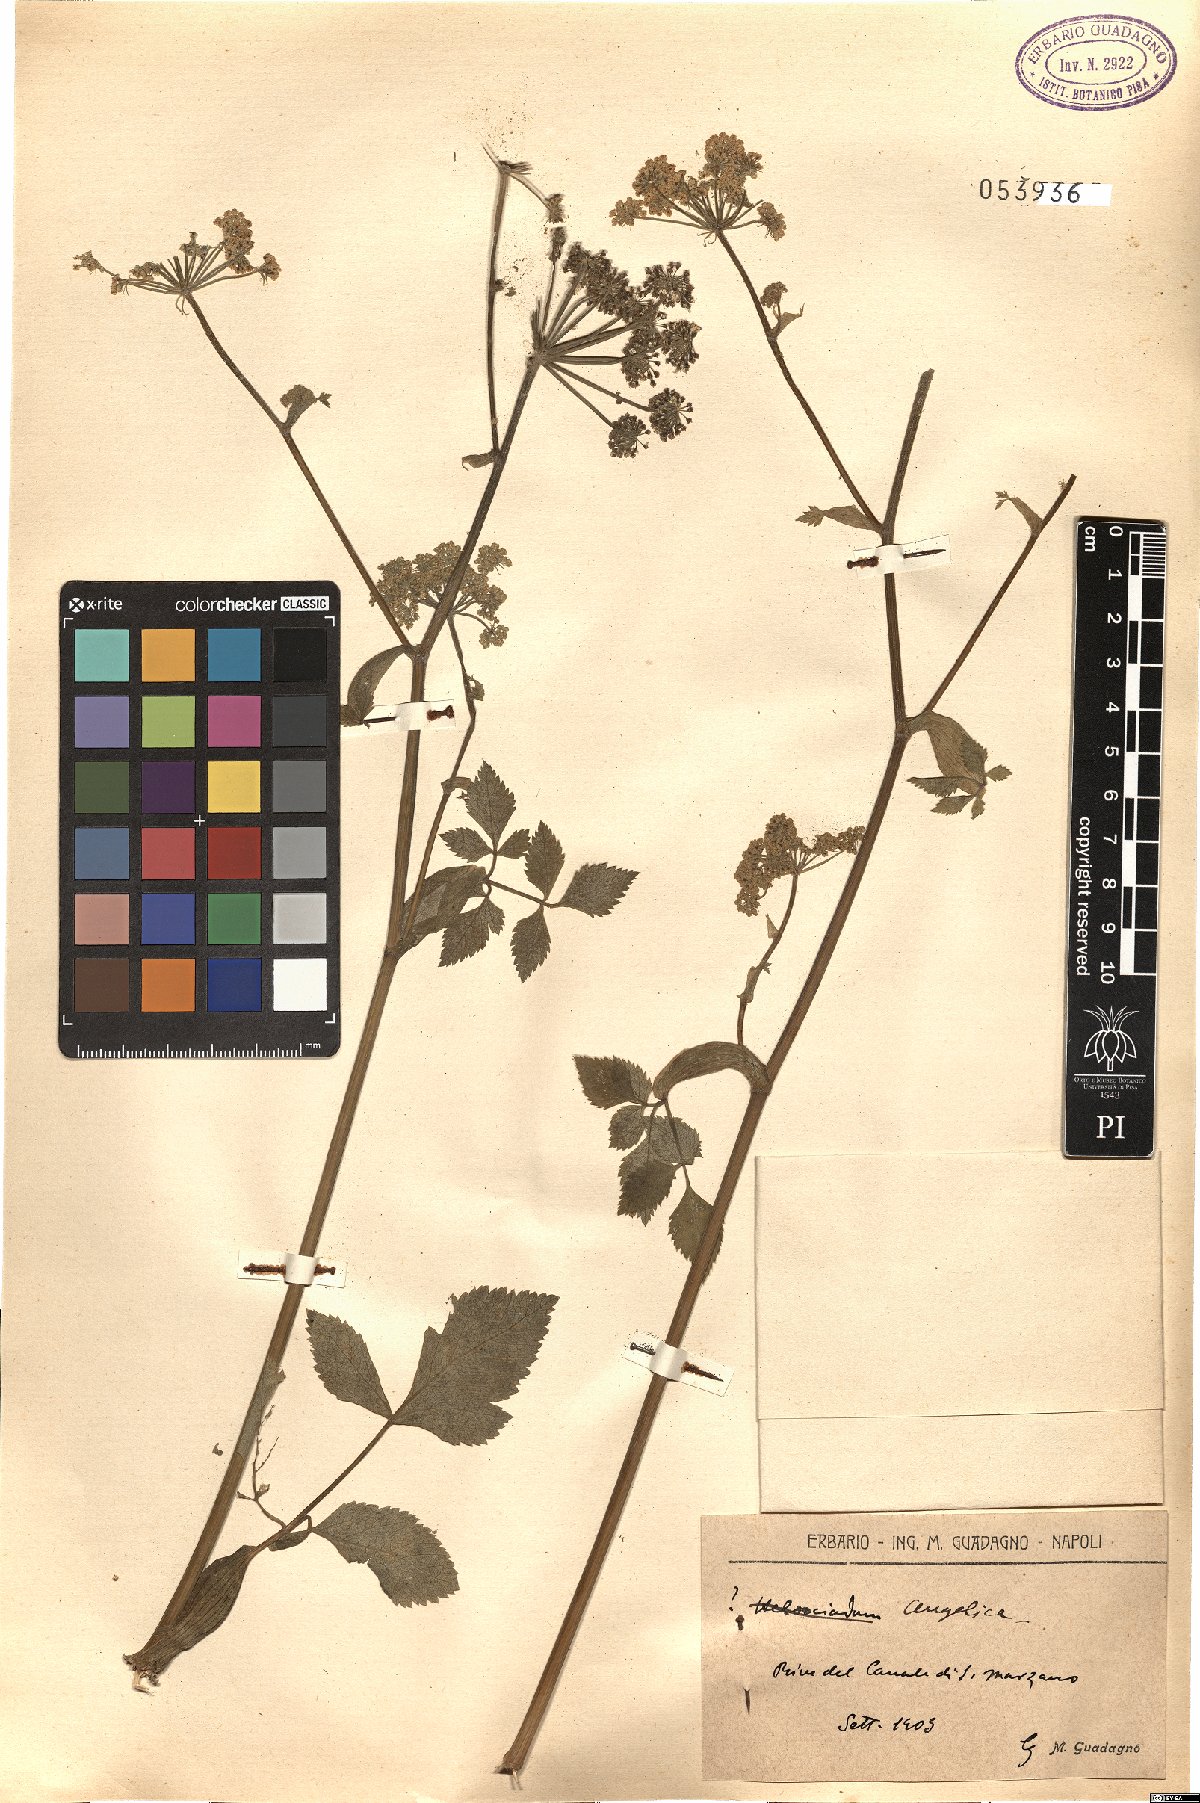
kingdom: Plantae
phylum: Tracheophyta
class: Magnoliopsida
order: Apiales
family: Apiaceae
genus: Angelica
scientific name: Angelica
